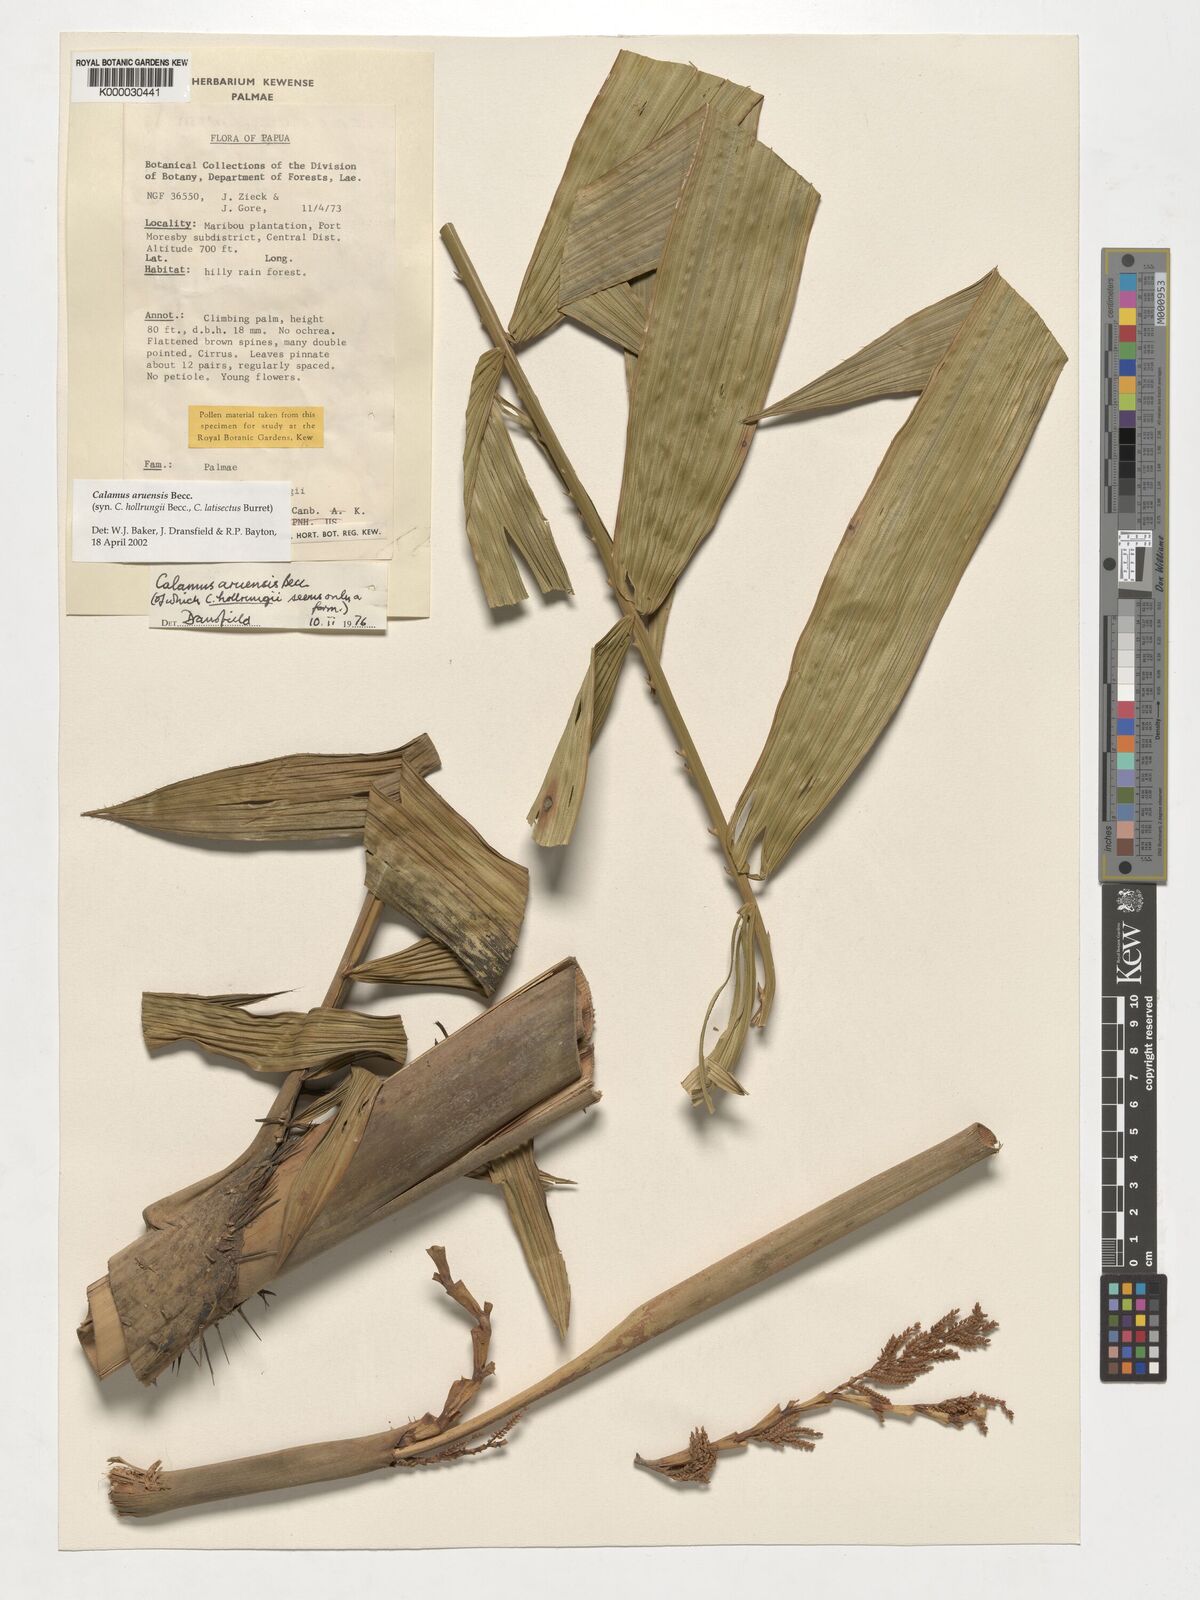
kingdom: Plantae
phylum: Tracheophyta
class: Liliopsida
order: Arecales
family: Arecaceae
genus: Calamus
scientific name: Calamus aruensis
